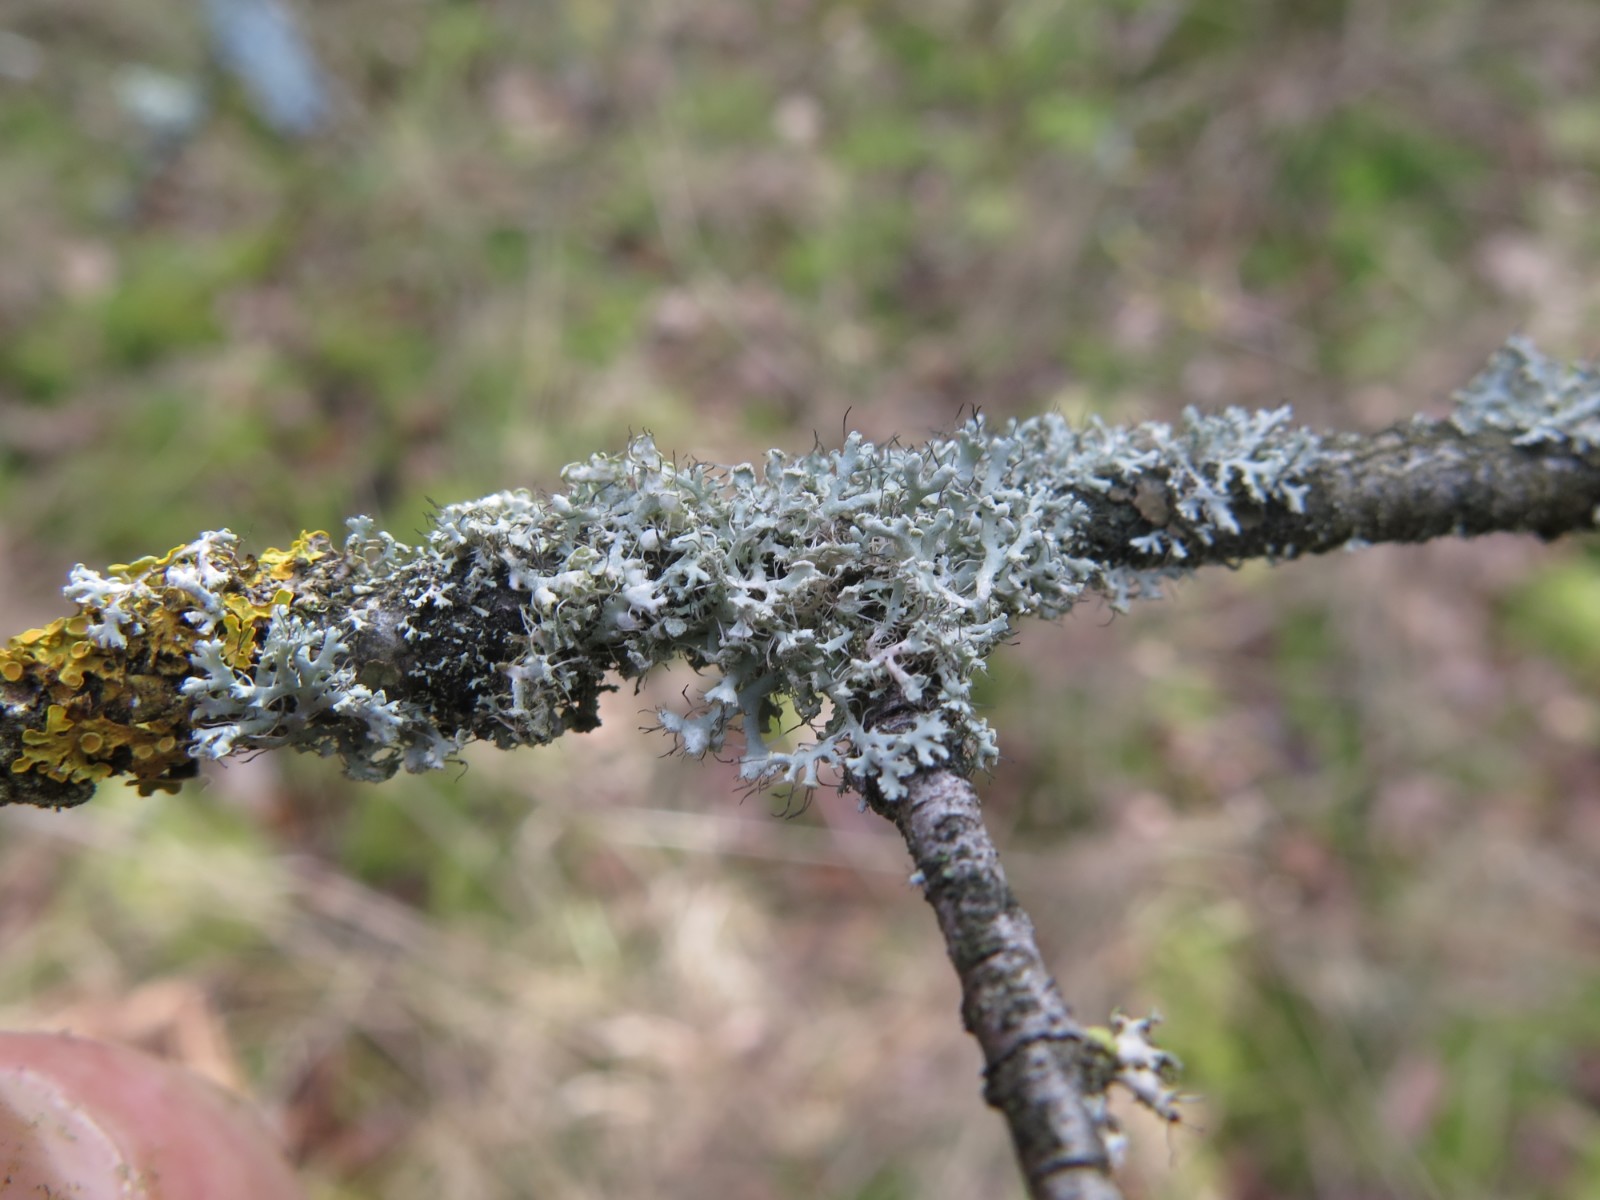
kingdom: Fungi
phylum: Ascomycota
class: Lecanoromycetes
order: Caliciales
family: Physciaceae
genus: Physcia
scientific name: Physcia tenella
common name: spæd rosetlav
